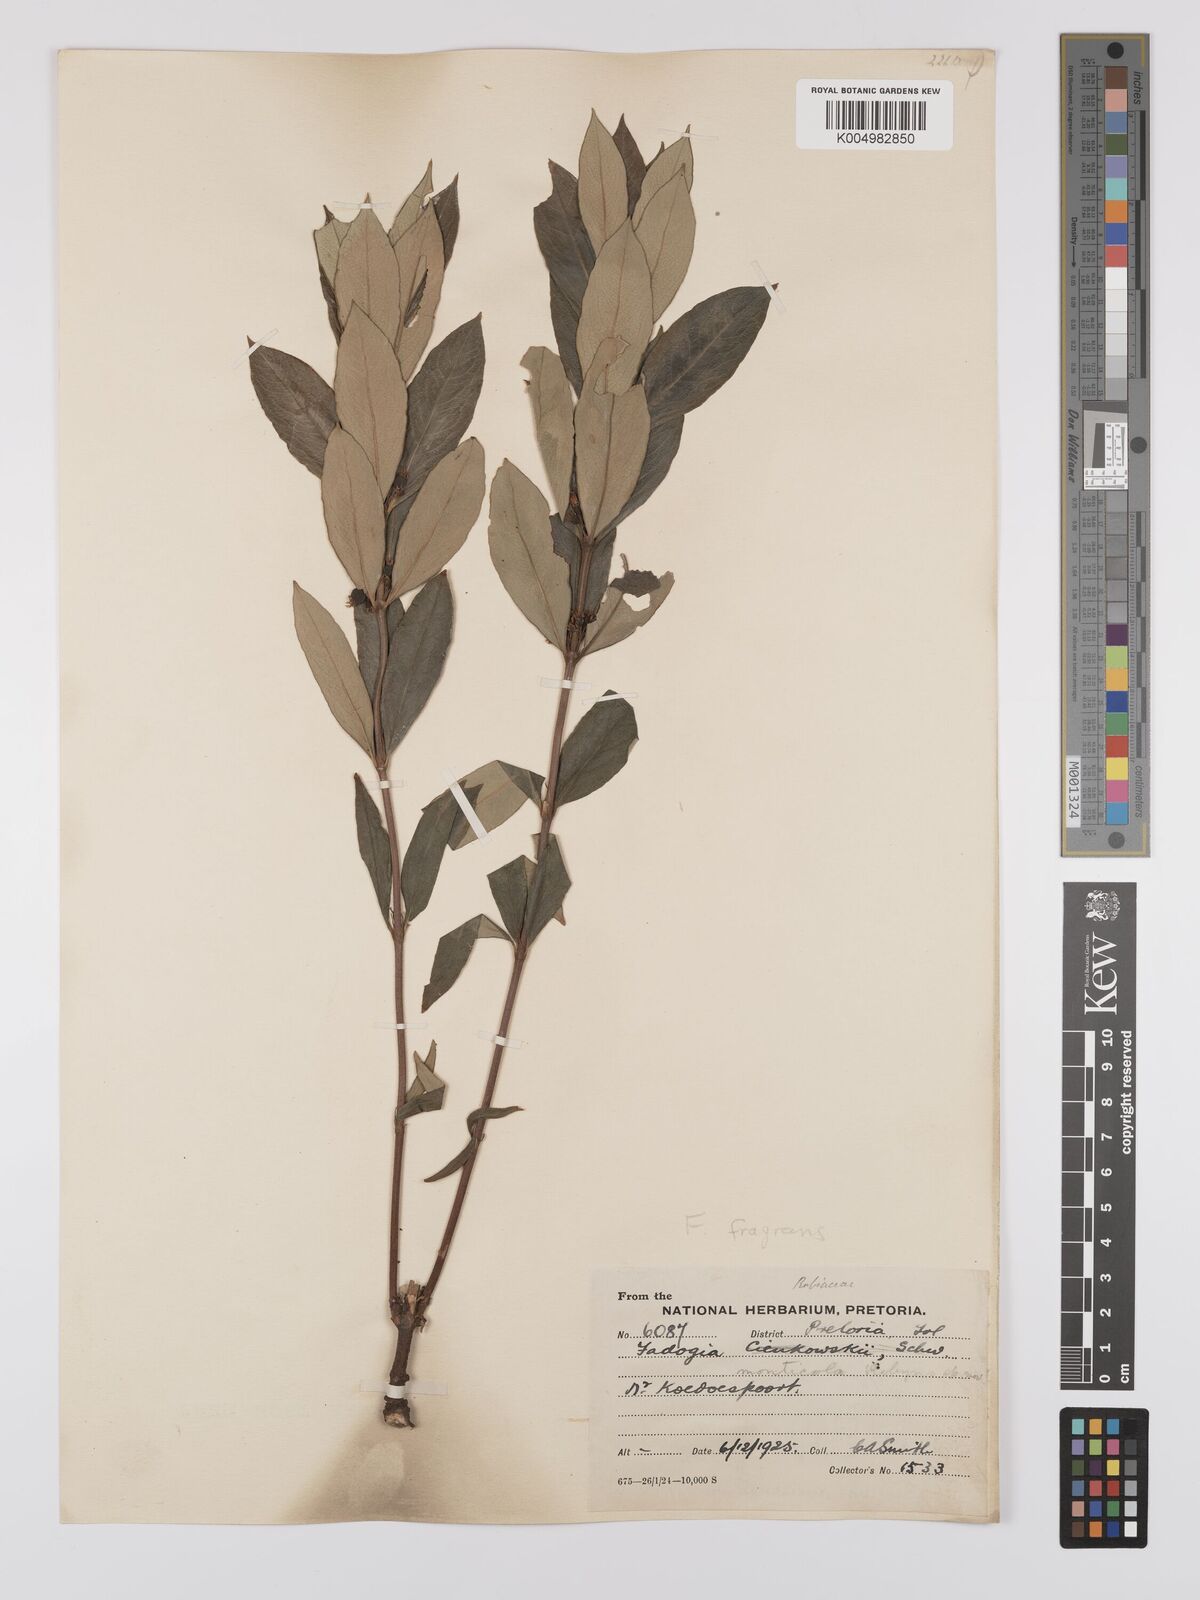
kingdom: Plantae
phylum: Tracheophyta
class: Magnoliopsida
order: Gentianales
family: Rubiaceae
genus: Fadogia
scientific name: Fadogia fragrans
